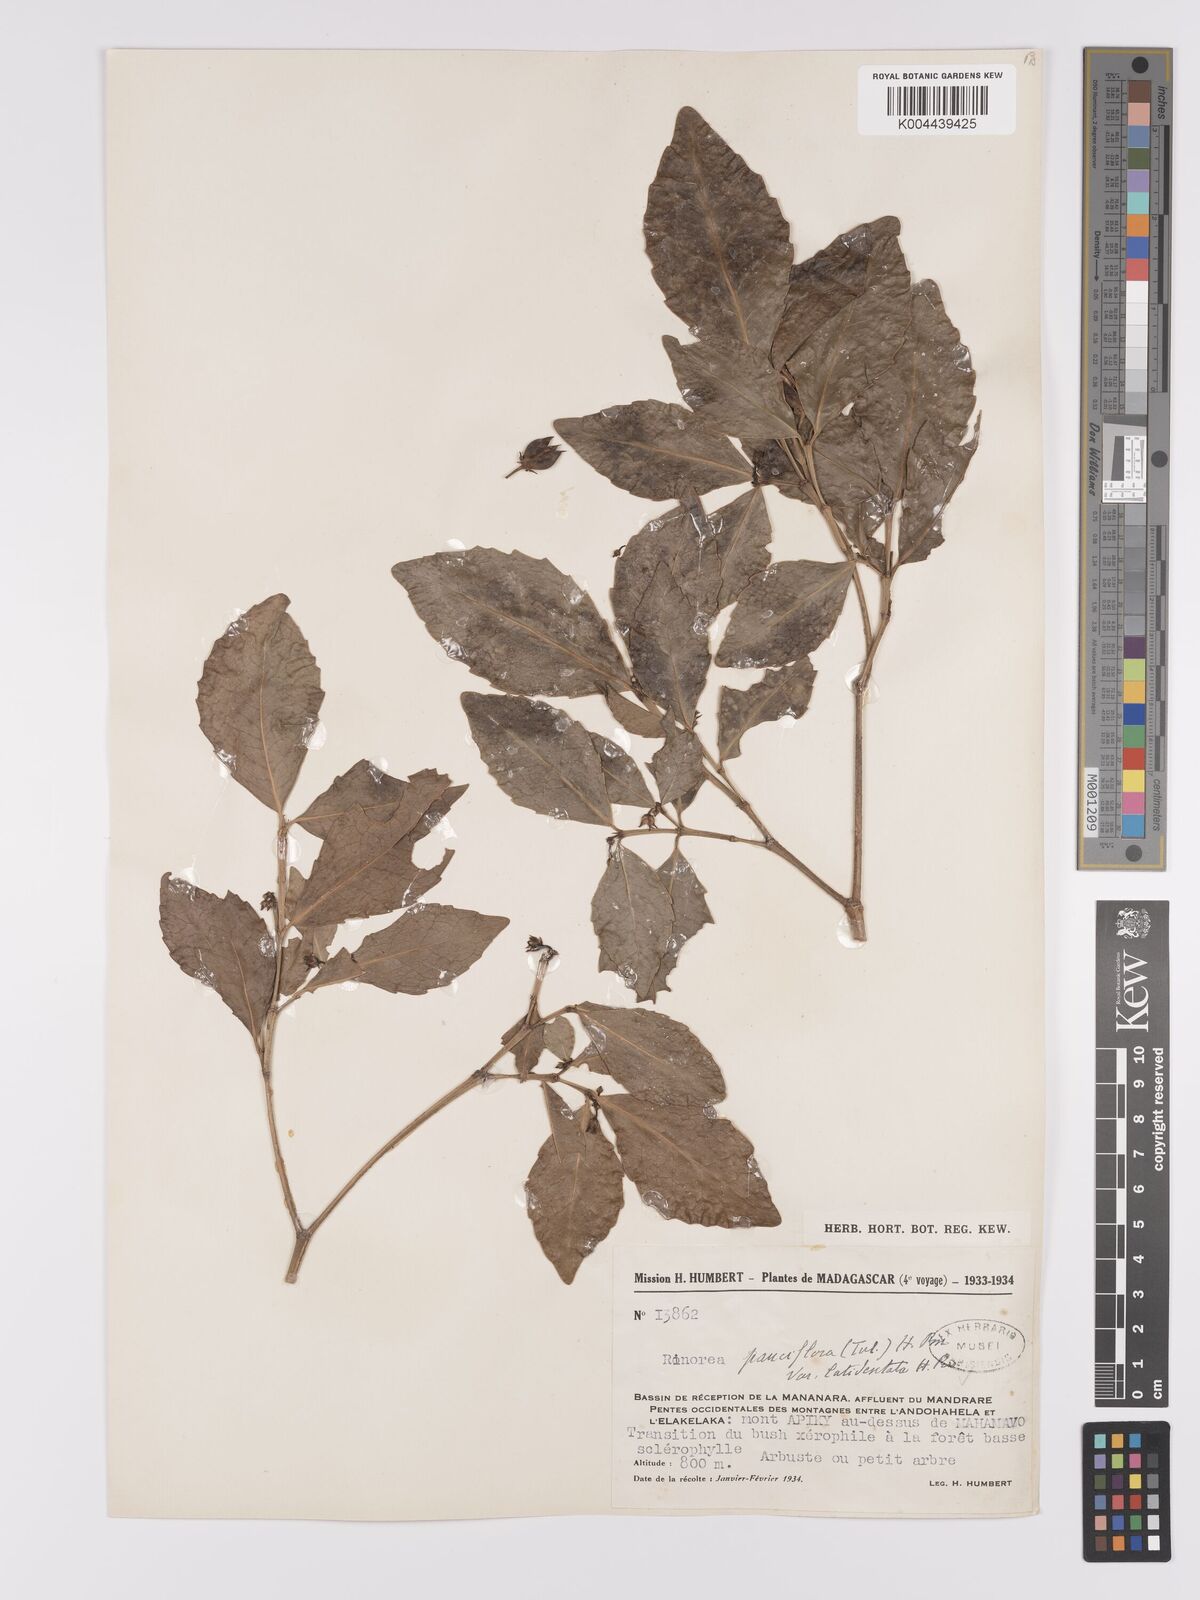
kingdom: Plantae
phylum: Tracheophyta
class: Magnoliopsida
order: Malpighiales
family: Violaceae
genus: Rinorea
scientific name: Rinorea pauciflora
